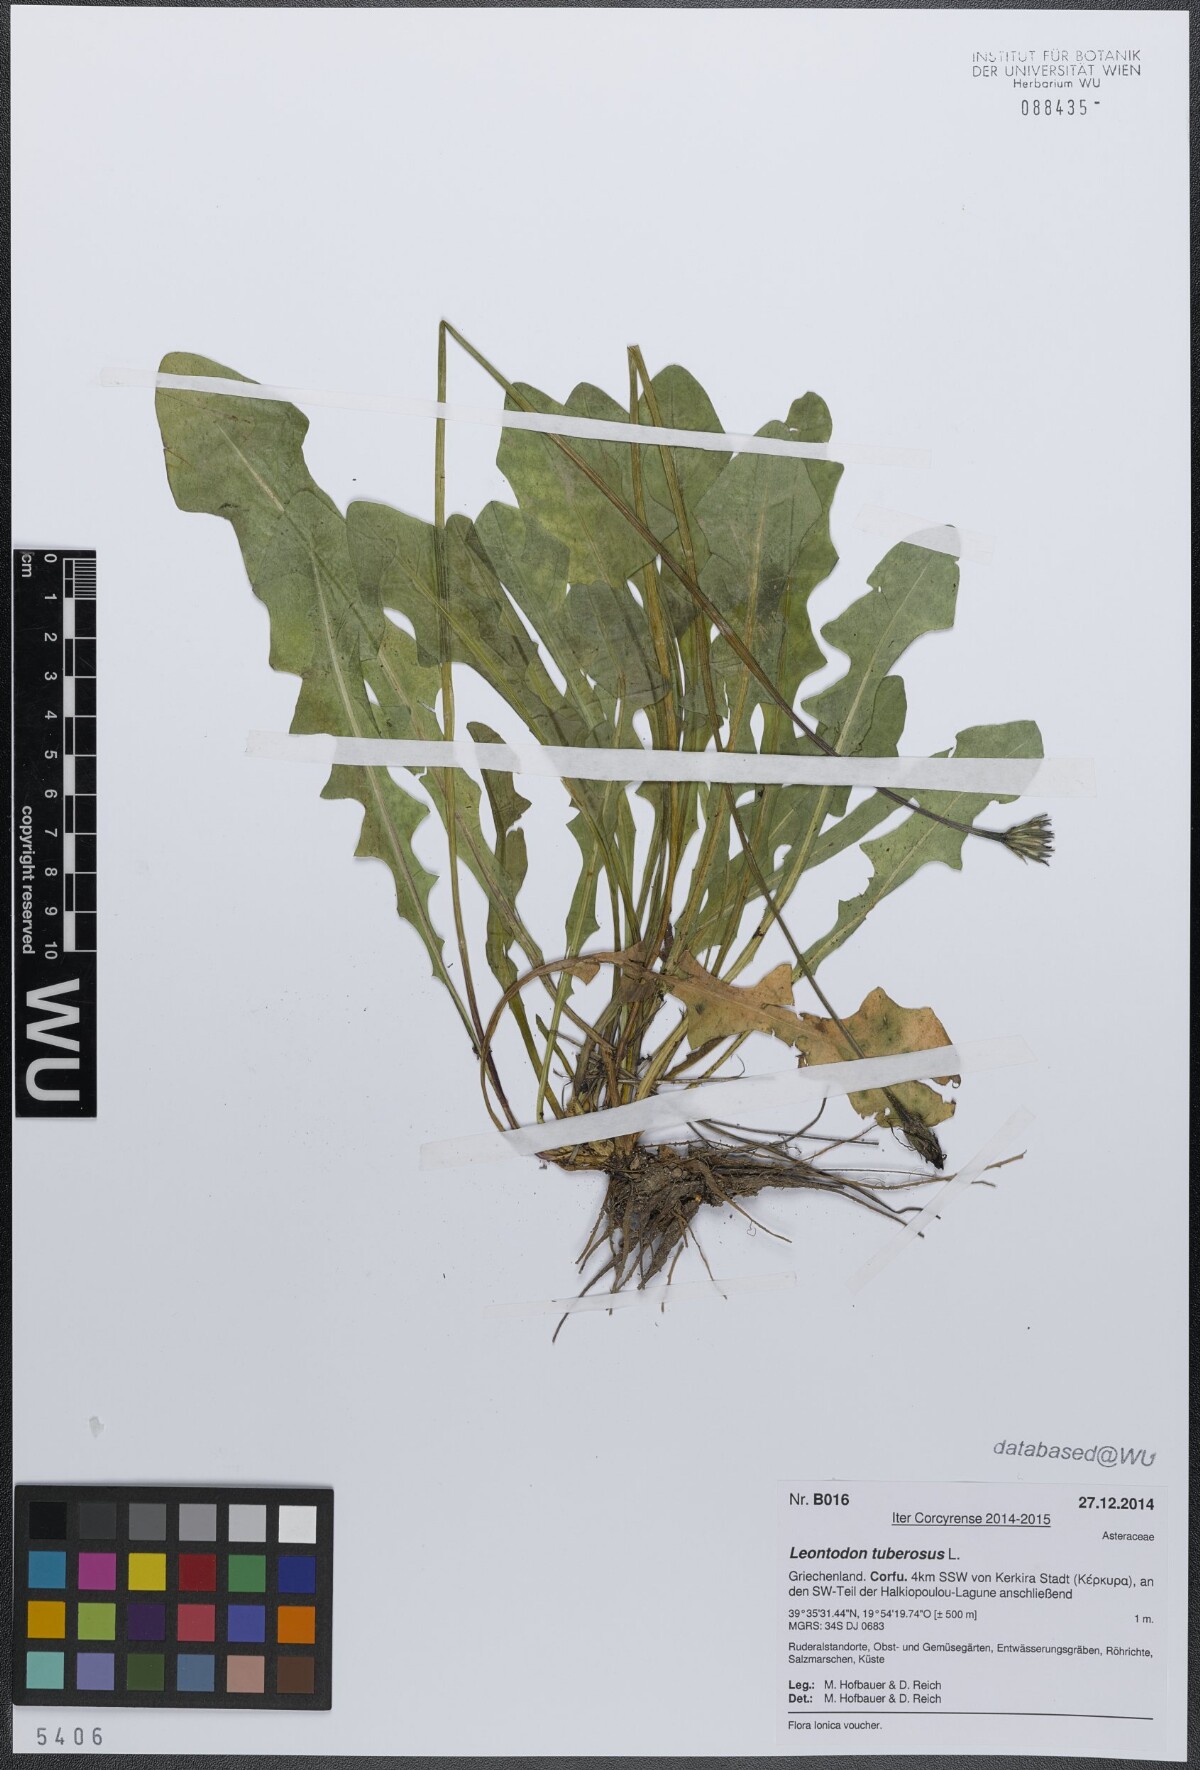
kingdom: Plantae
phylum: Tracheophyta
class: Magnoliopsida
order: Asterales
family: Asteraceae
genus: Thrincia
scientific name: Thrincia tuberosa
